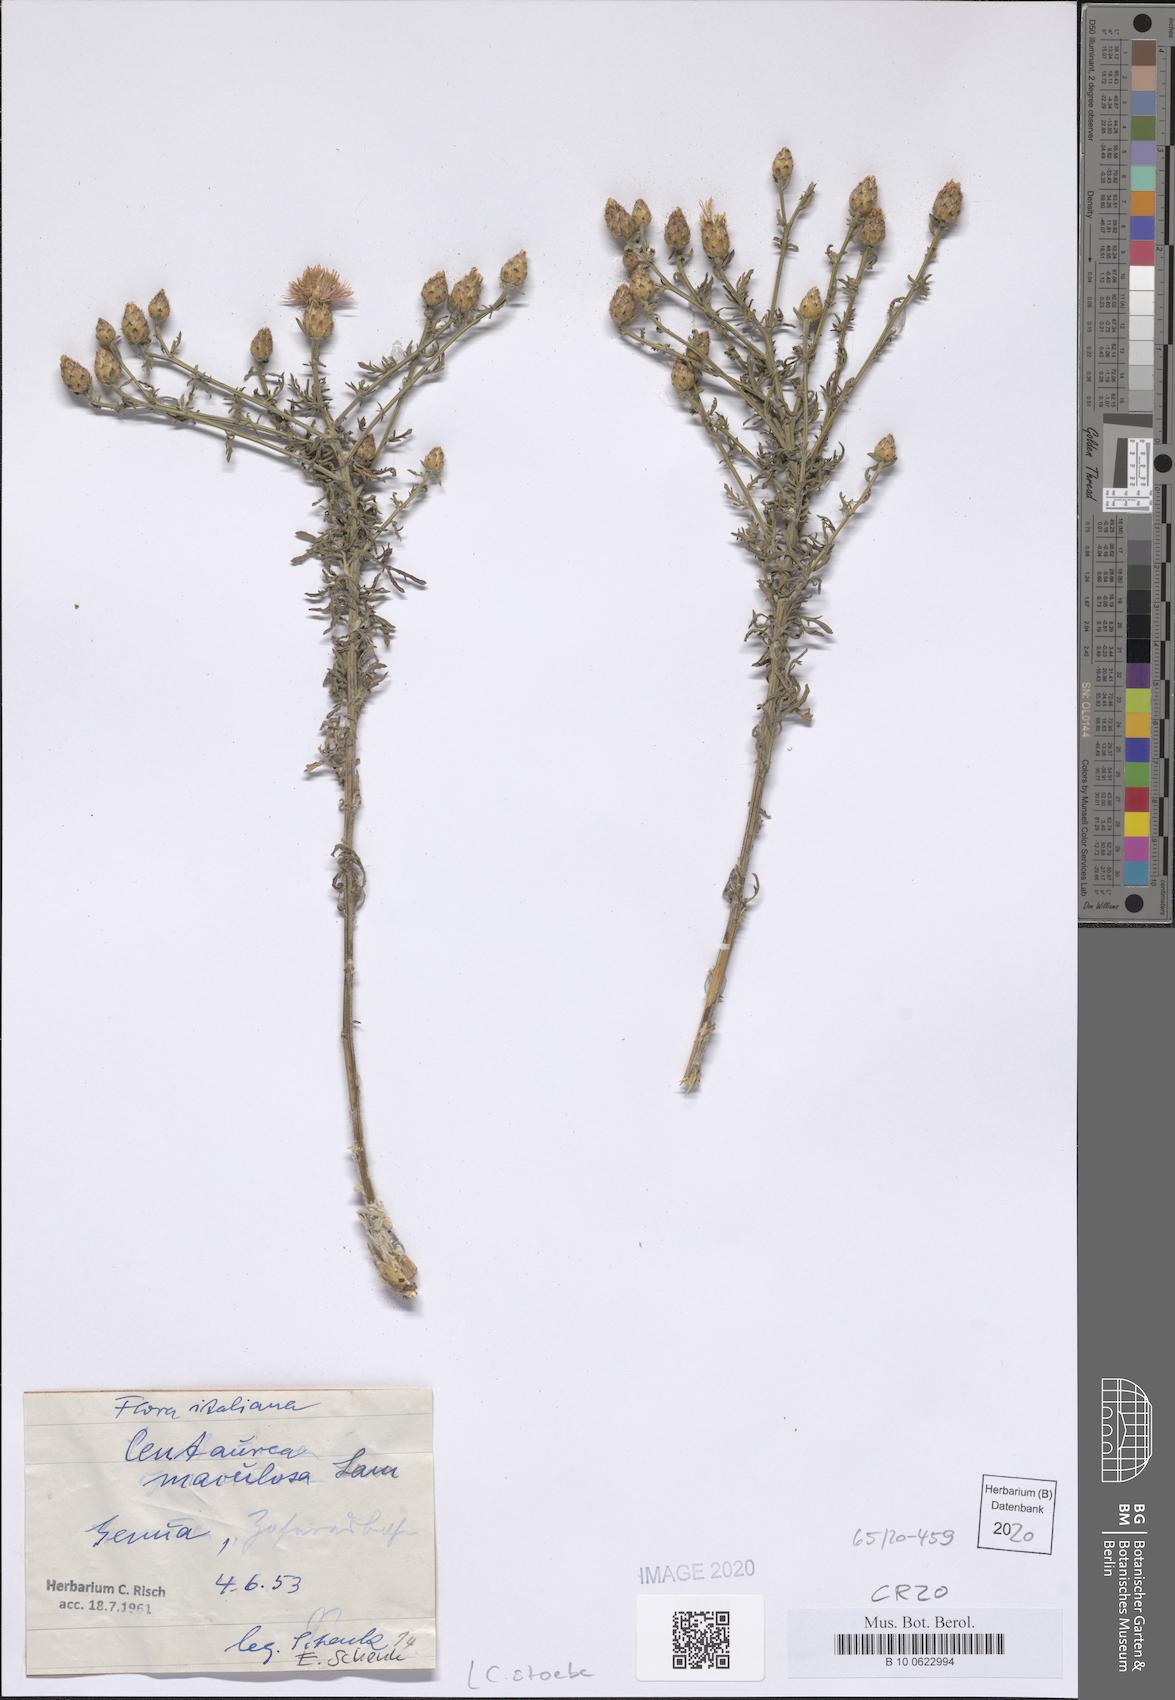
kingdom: Plantae
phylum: Tracheophyta
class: Magnoliopsida
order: Asterales
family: Asteraceae
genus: Centaurea
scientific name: Centaurea stoebe
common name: Spotted knapweed
